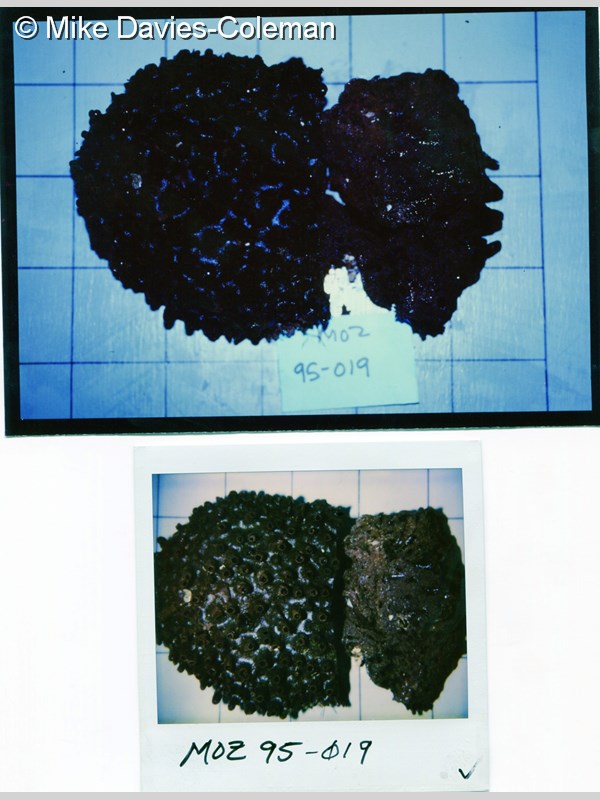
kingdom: Animalia
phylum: Porifera
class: Demospongiae
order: Haplosclerida
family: Phloeodictyidae
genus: Oceanapia
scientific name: Oceanapia seychellensis
